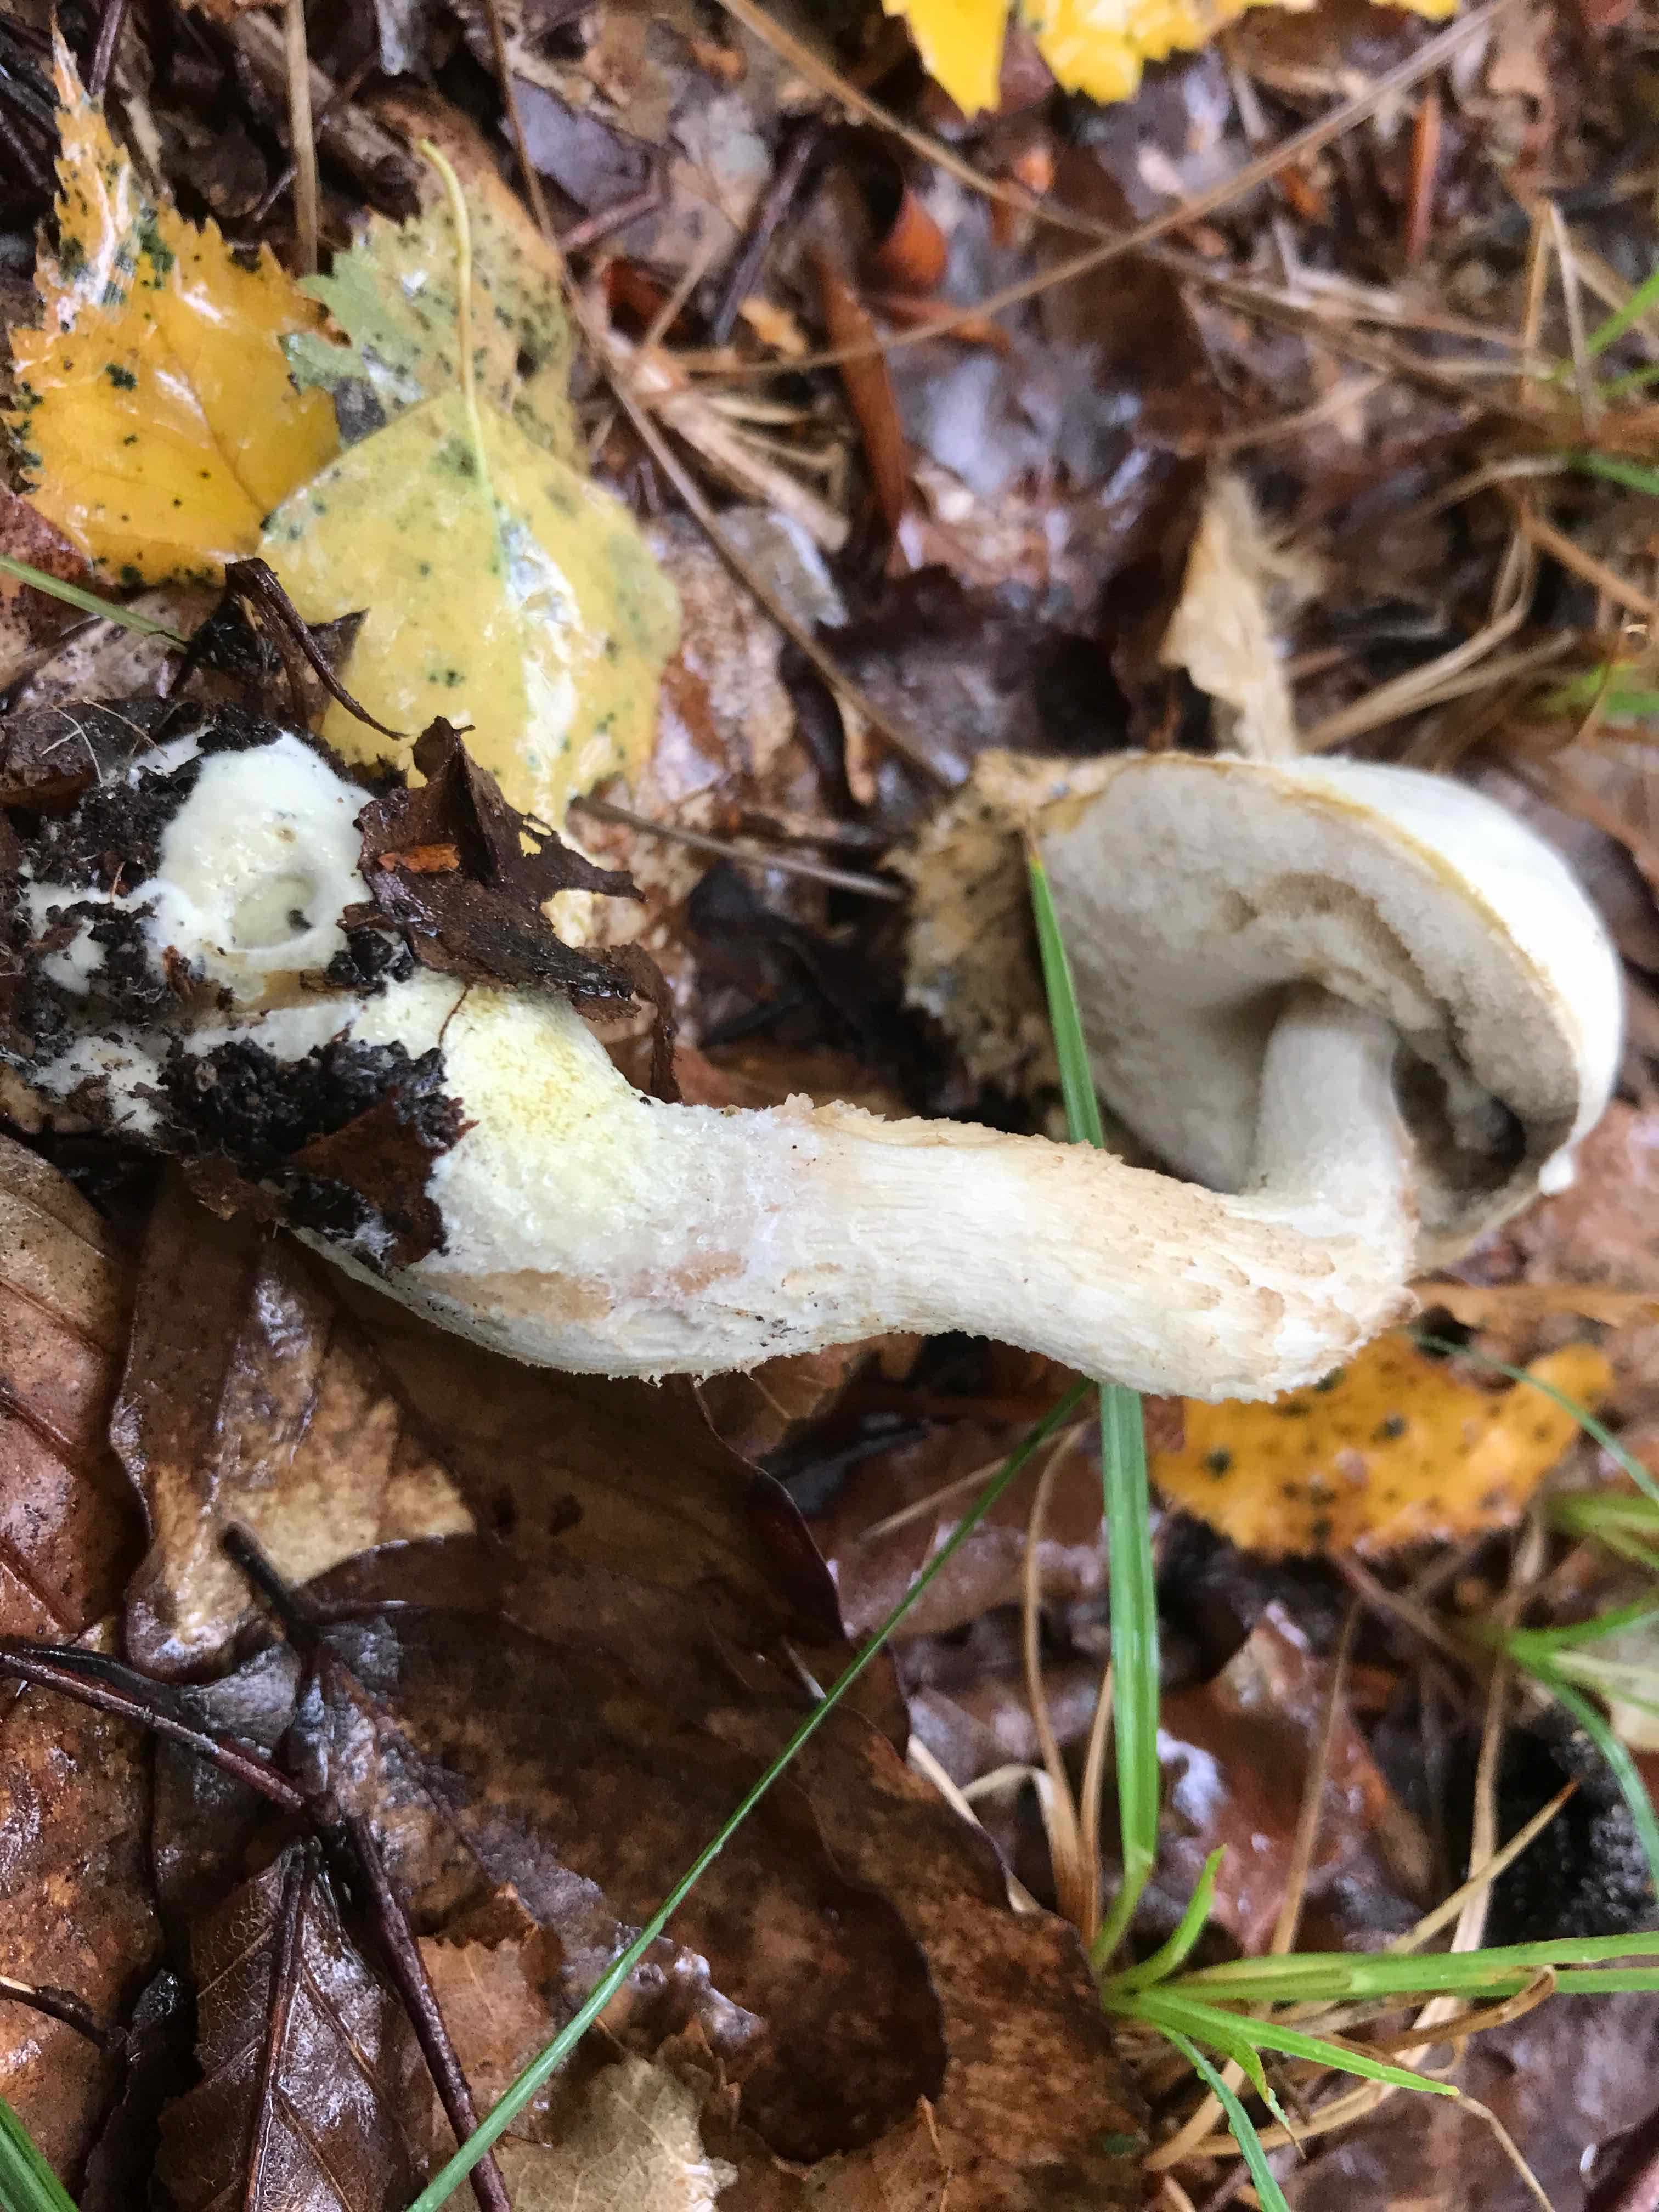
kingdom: Fungi
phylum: Basidiomycota
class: Agaricomycetes
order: Boletales
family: Boletaceae
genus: Leccinum
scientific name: Leccinum scabrum
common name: hvid skælrørhat
